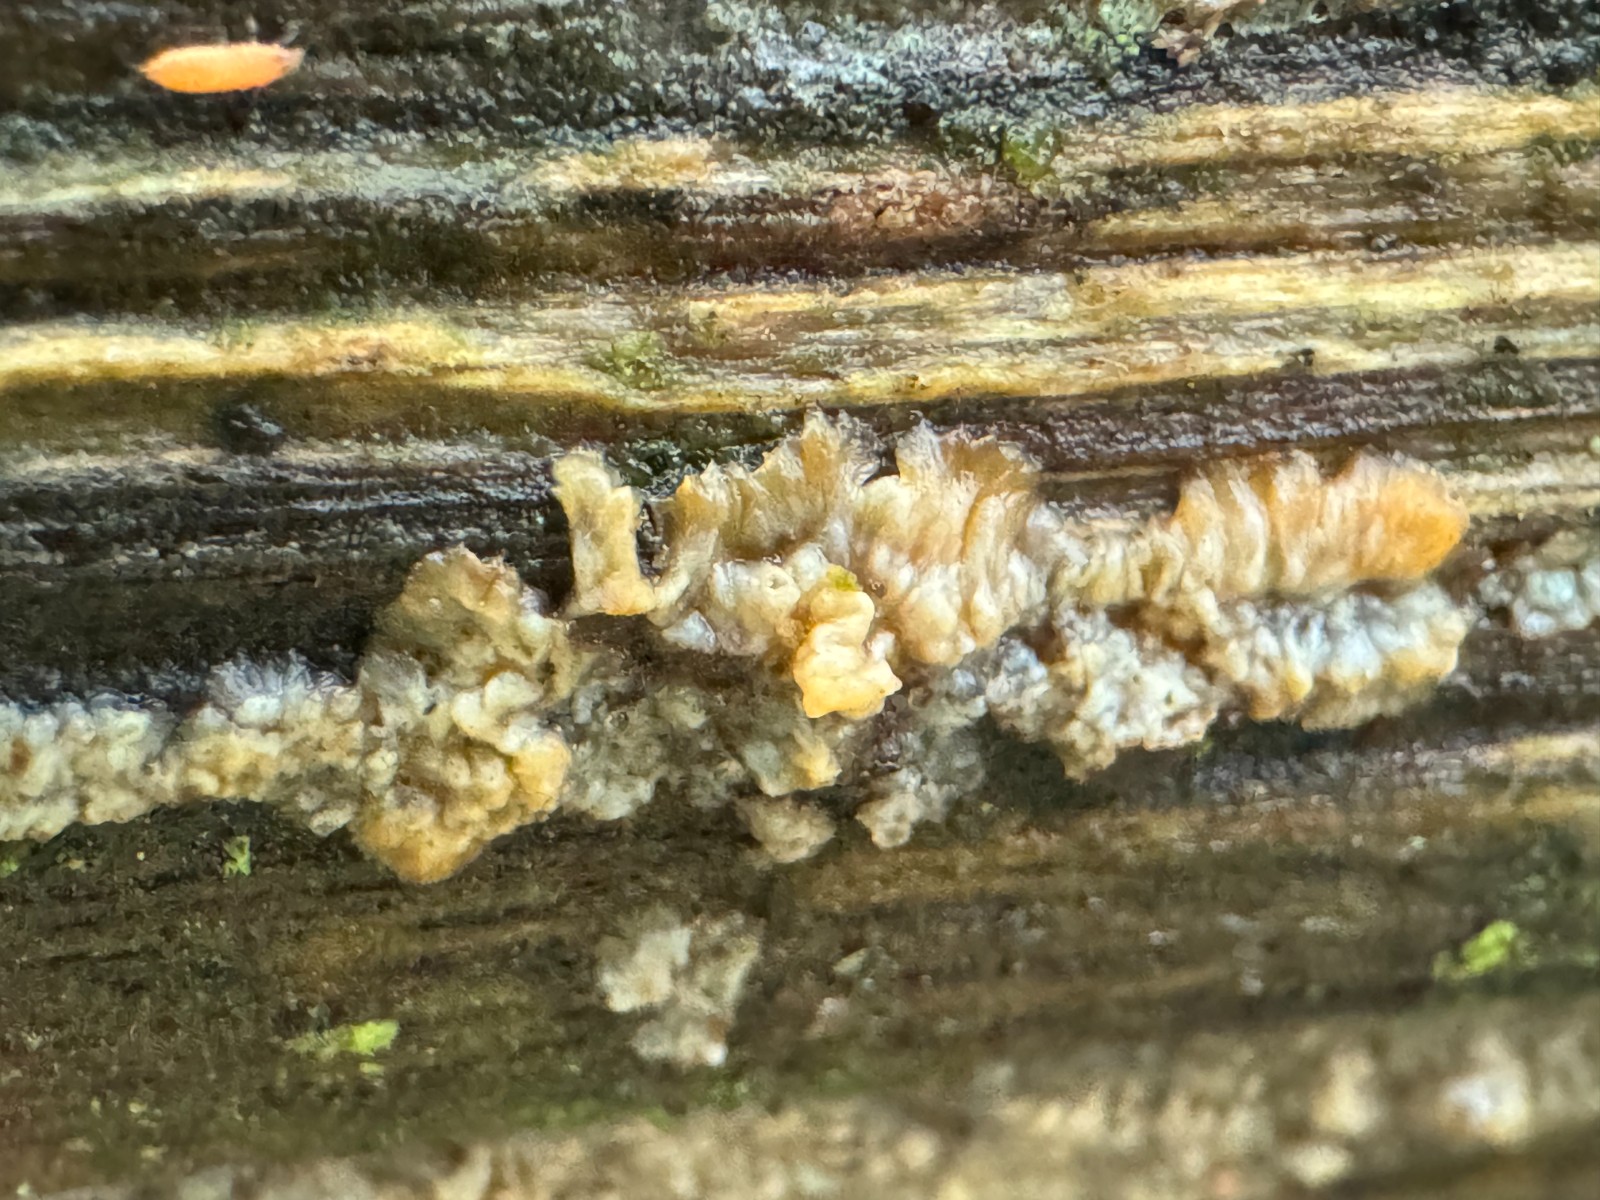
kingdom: Fungi
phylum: Basidiomycota
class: Agaricomycetes
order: Polyporales
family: Meruliaceae
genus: Phlebia
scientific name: Phlebia radiata
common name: stråle-åresvamp
